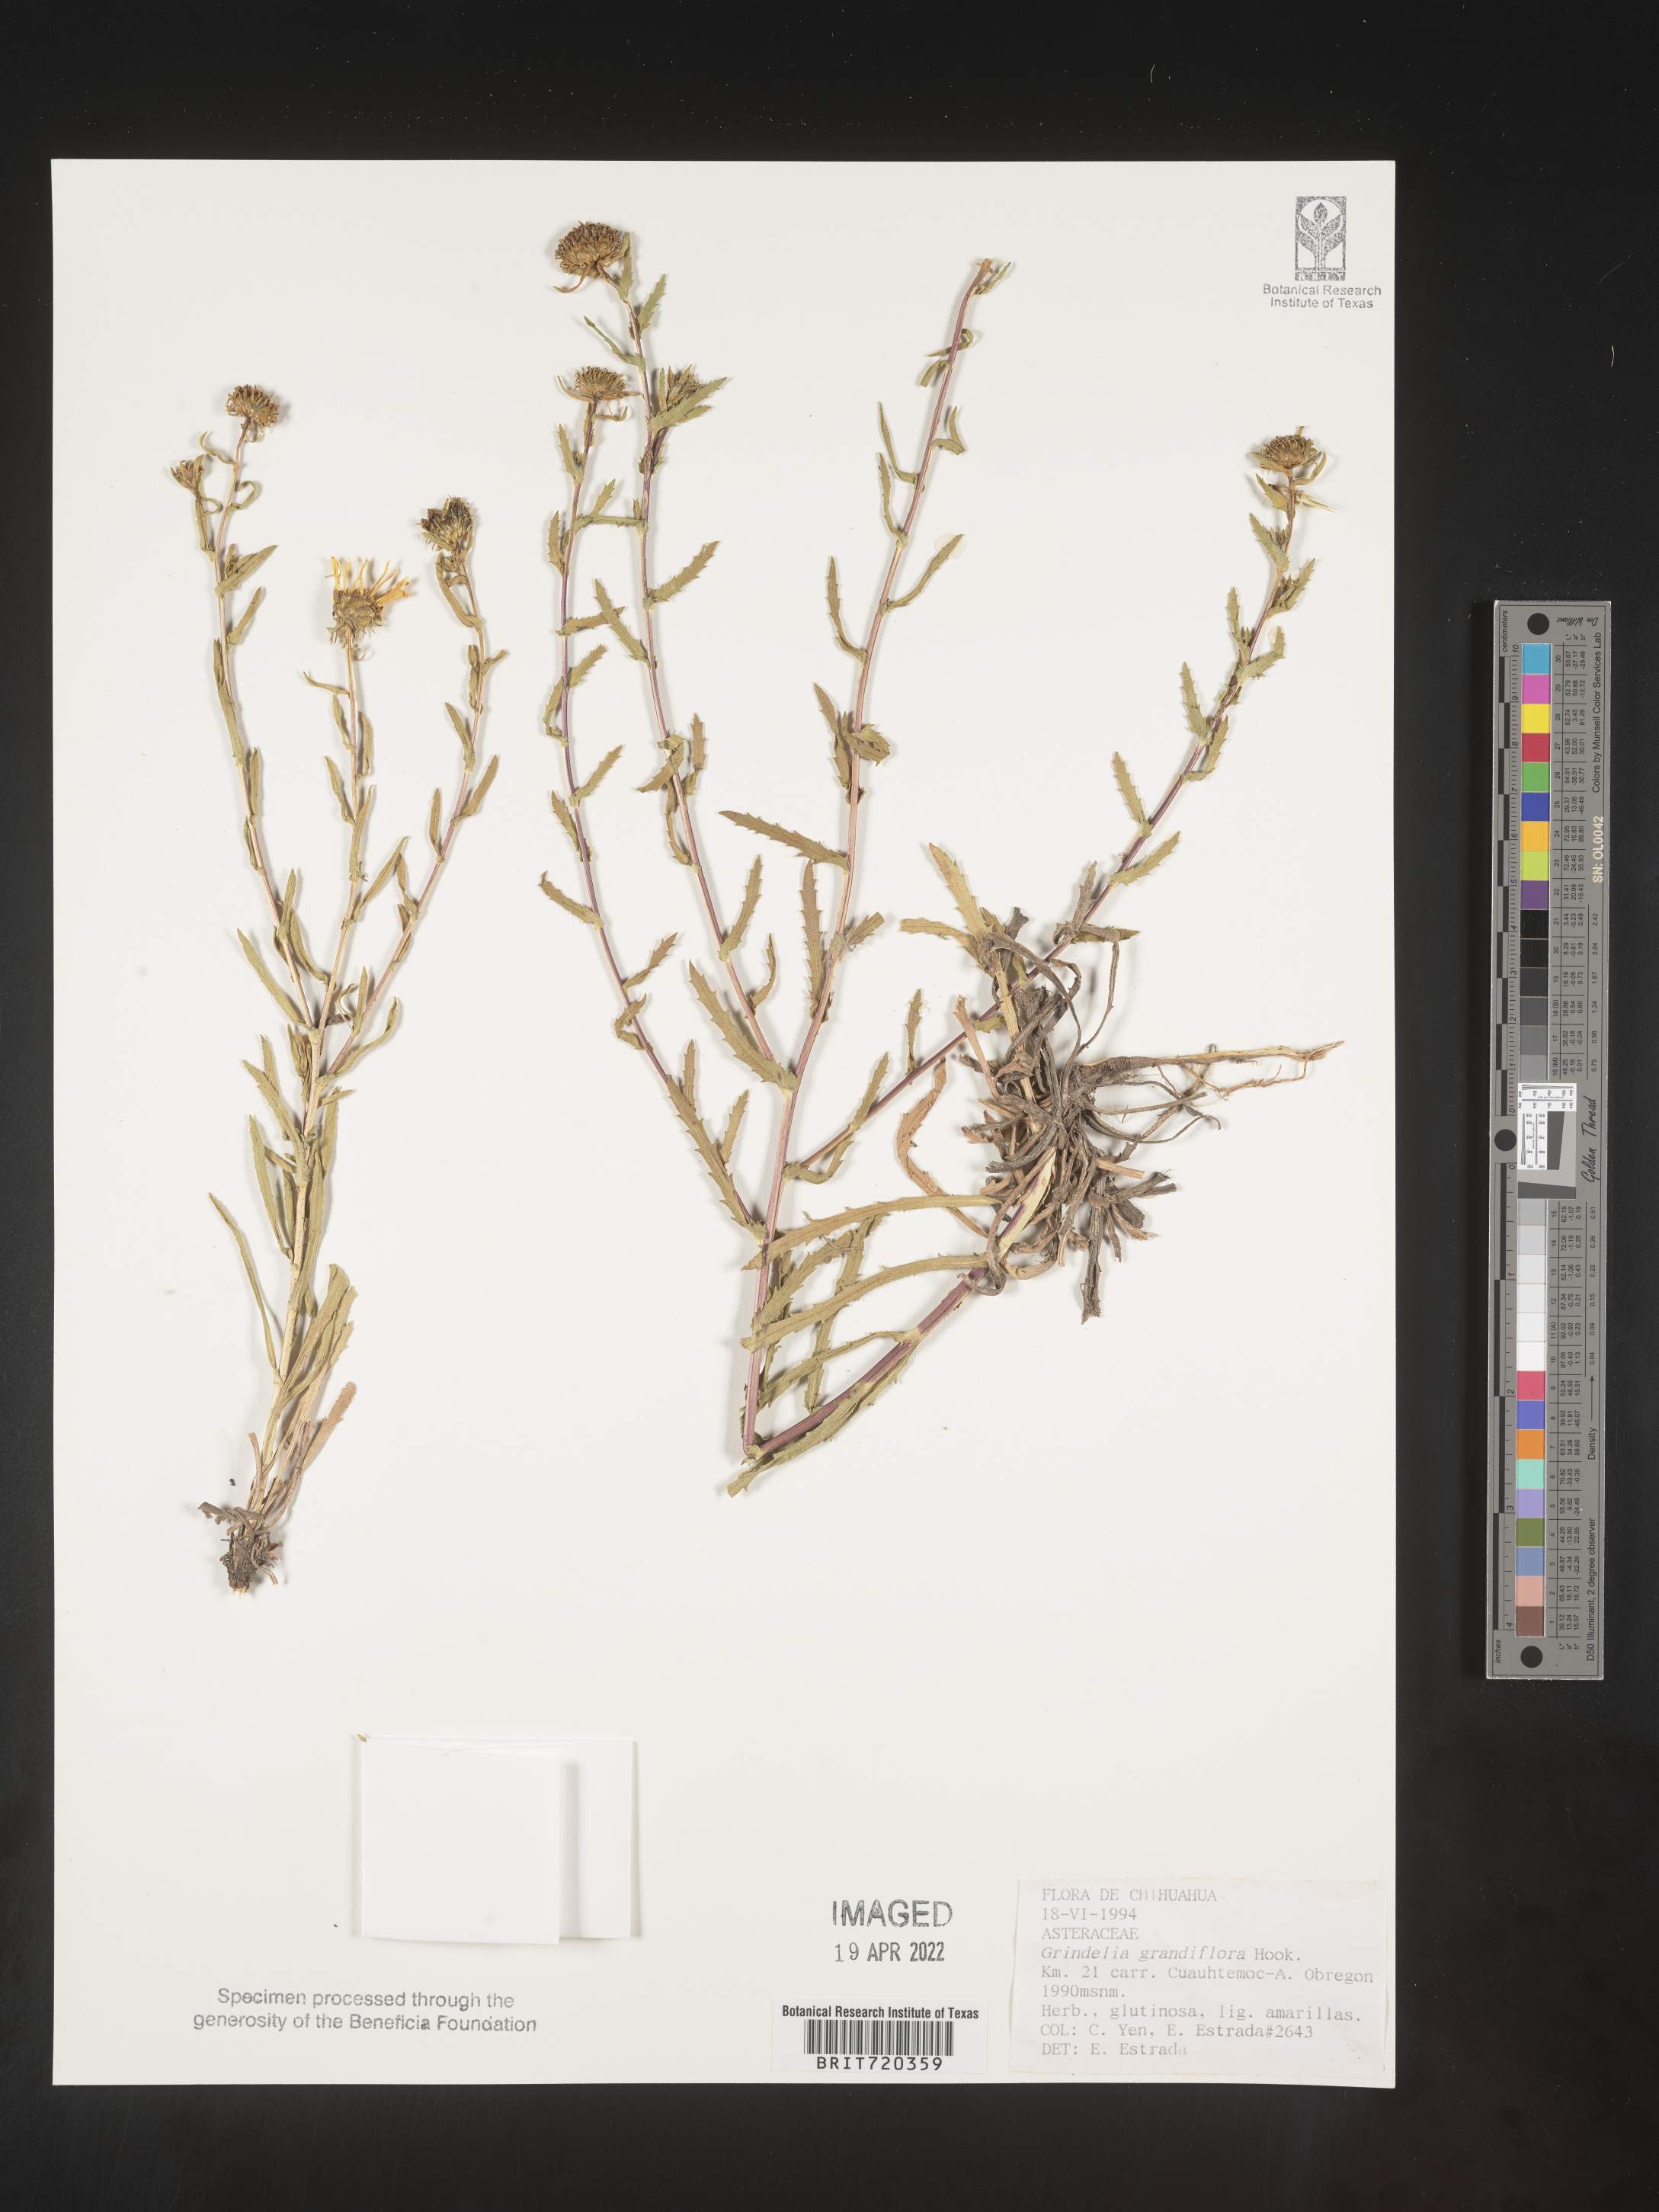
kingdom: Plantae
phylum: Tracheophyta
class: Magnoliopsida
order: Asterales
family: Asteraceae
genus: Grindelia
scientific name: Grindelia
